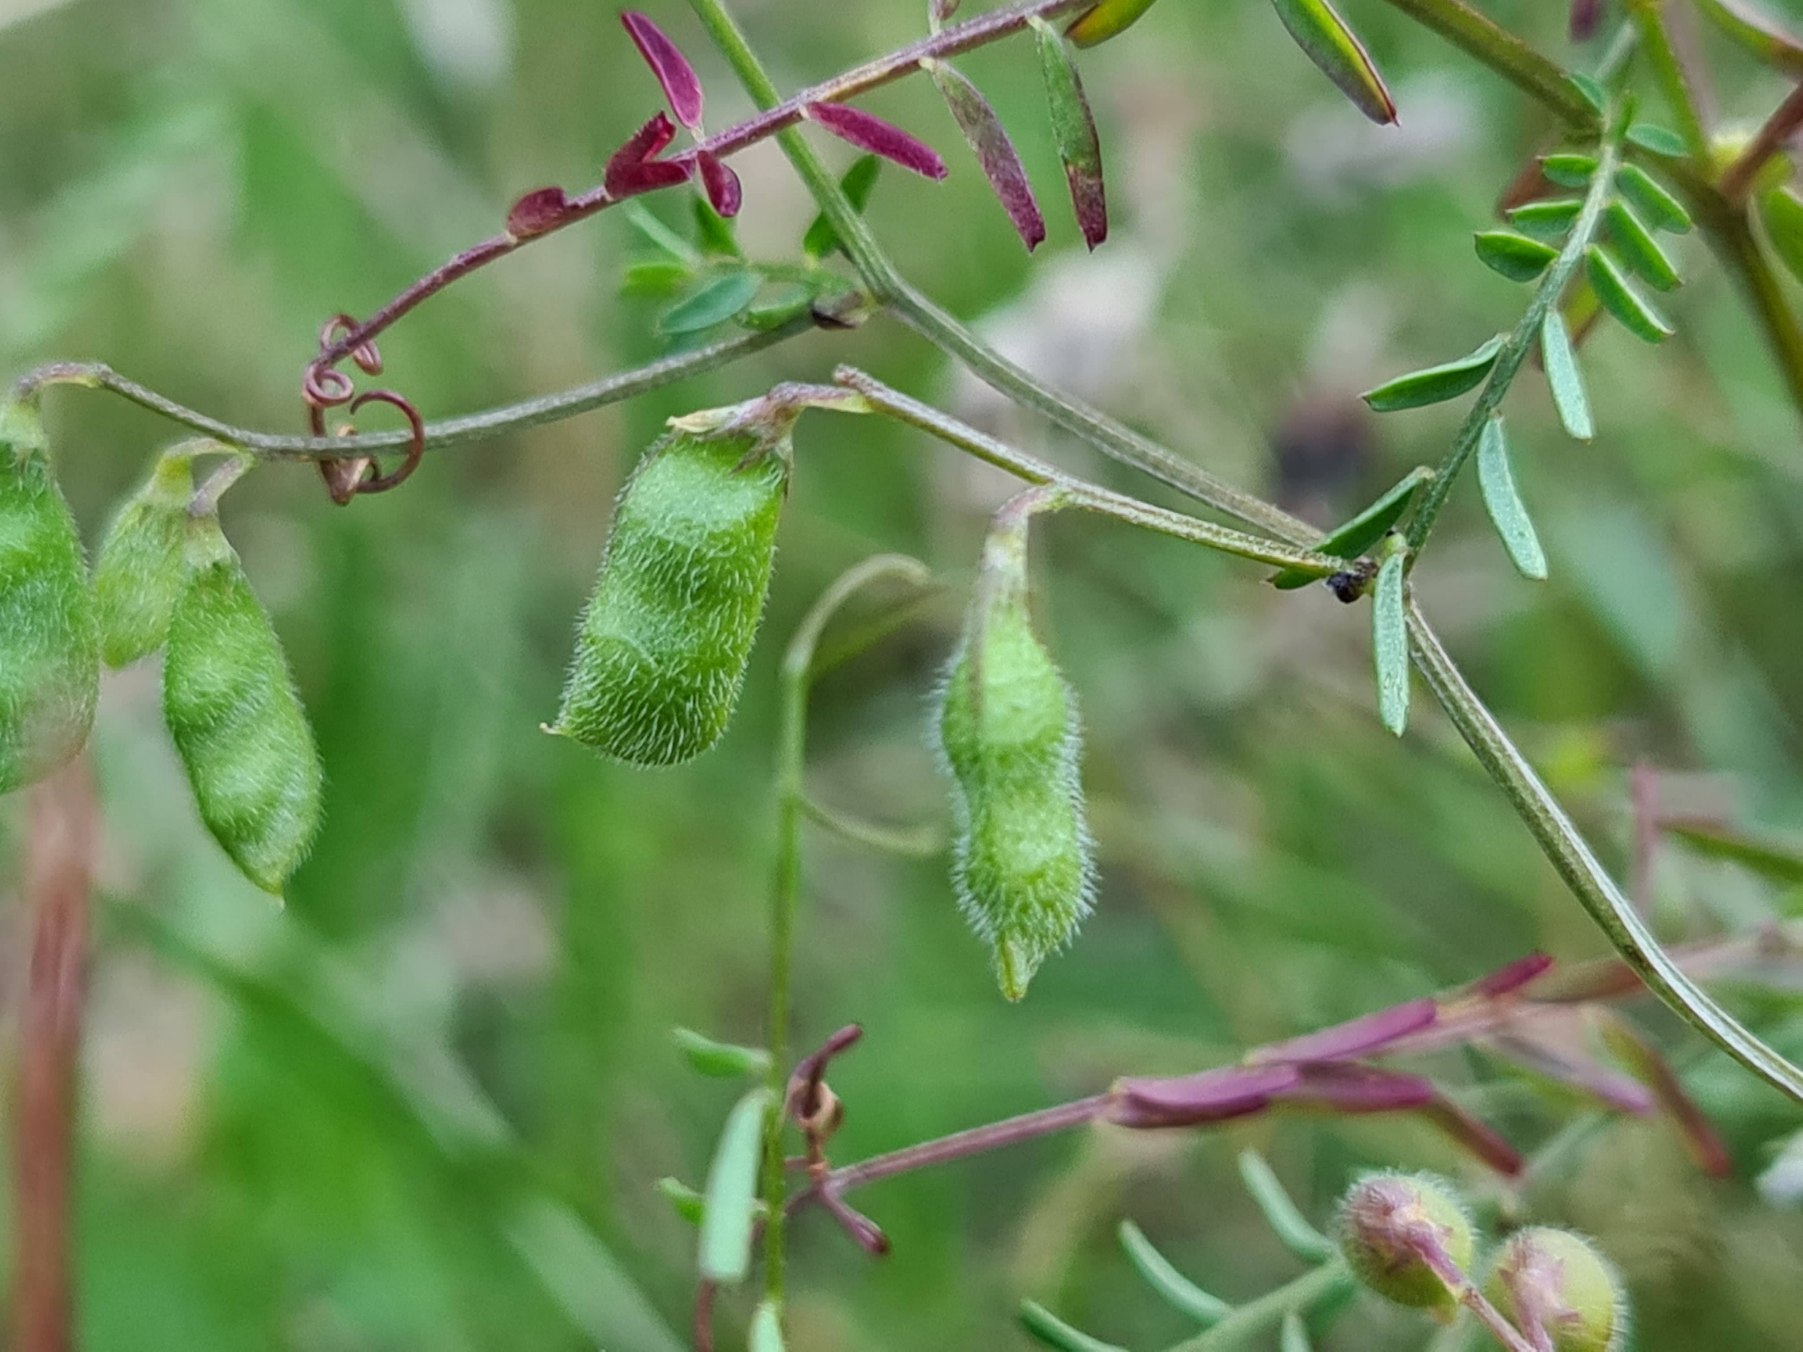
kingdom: Plantae
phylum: Tracheophyta
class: Magnoliopsida
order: Fabales
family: Fabaceae
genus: Vicia
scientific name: Vicia hirsuta
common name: Tofrøet vikke
